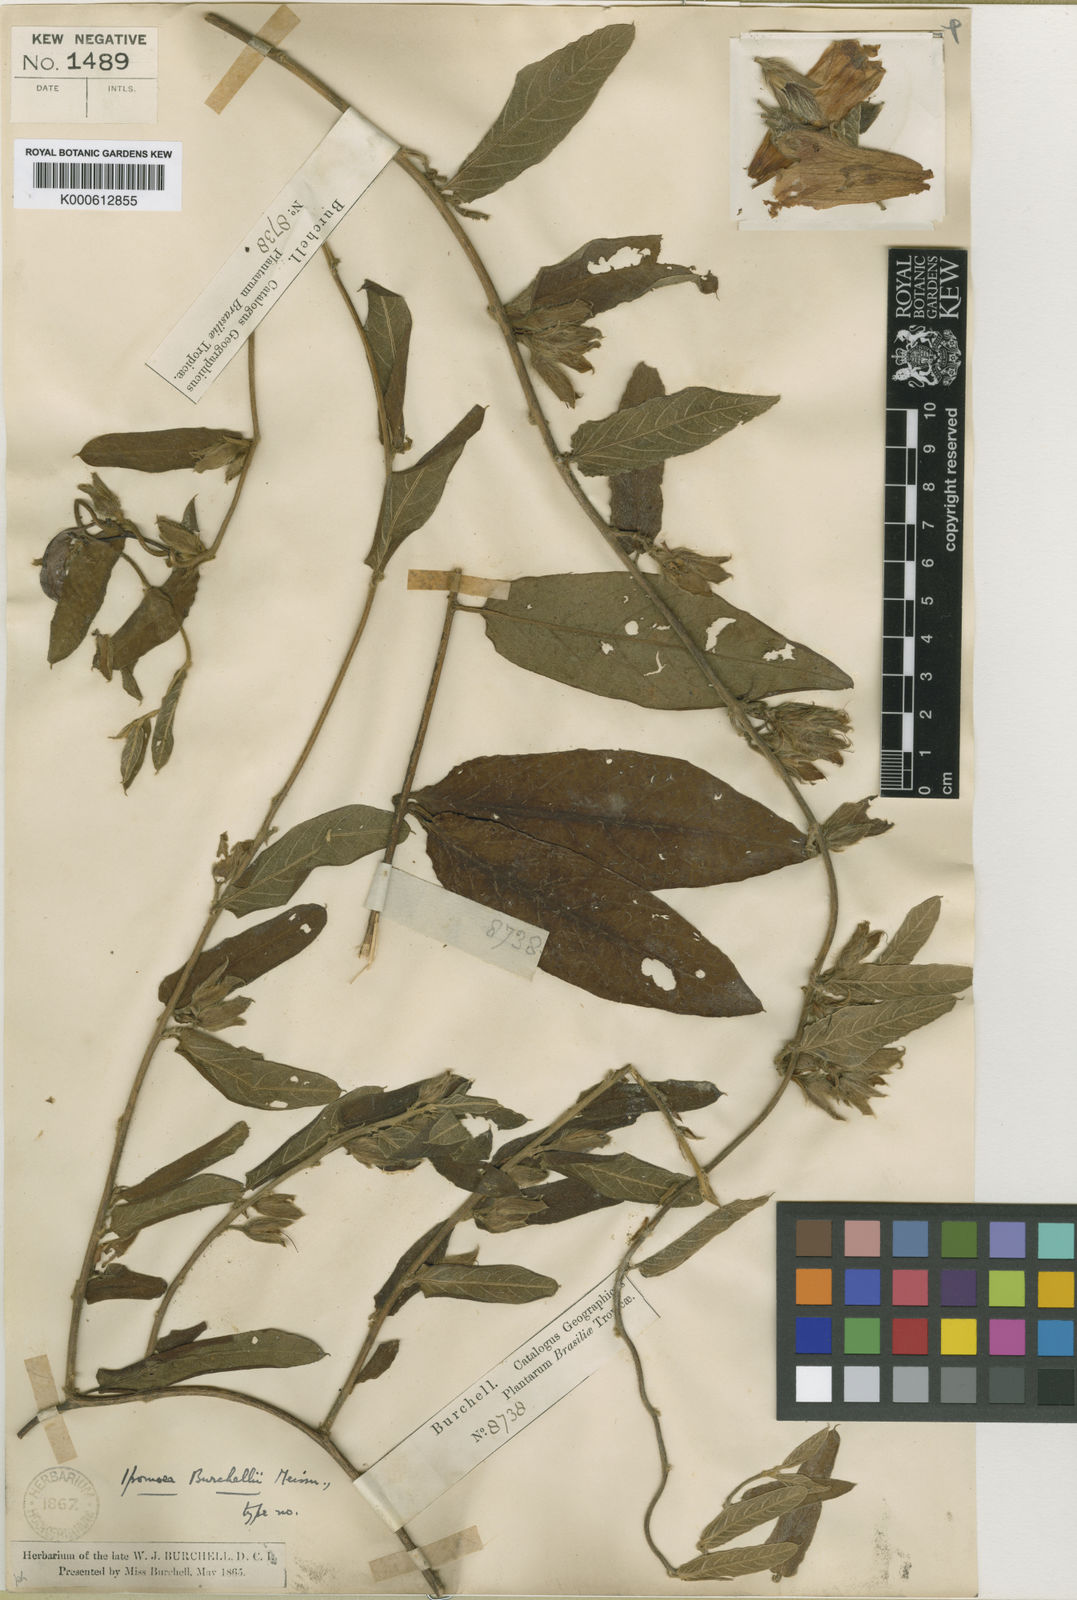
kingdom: Plantae
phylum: Tracheophyta
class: Magnoliopsida
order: Solanales
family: Convolvulaceae
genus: Ipomoea
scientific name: Ipomoea
